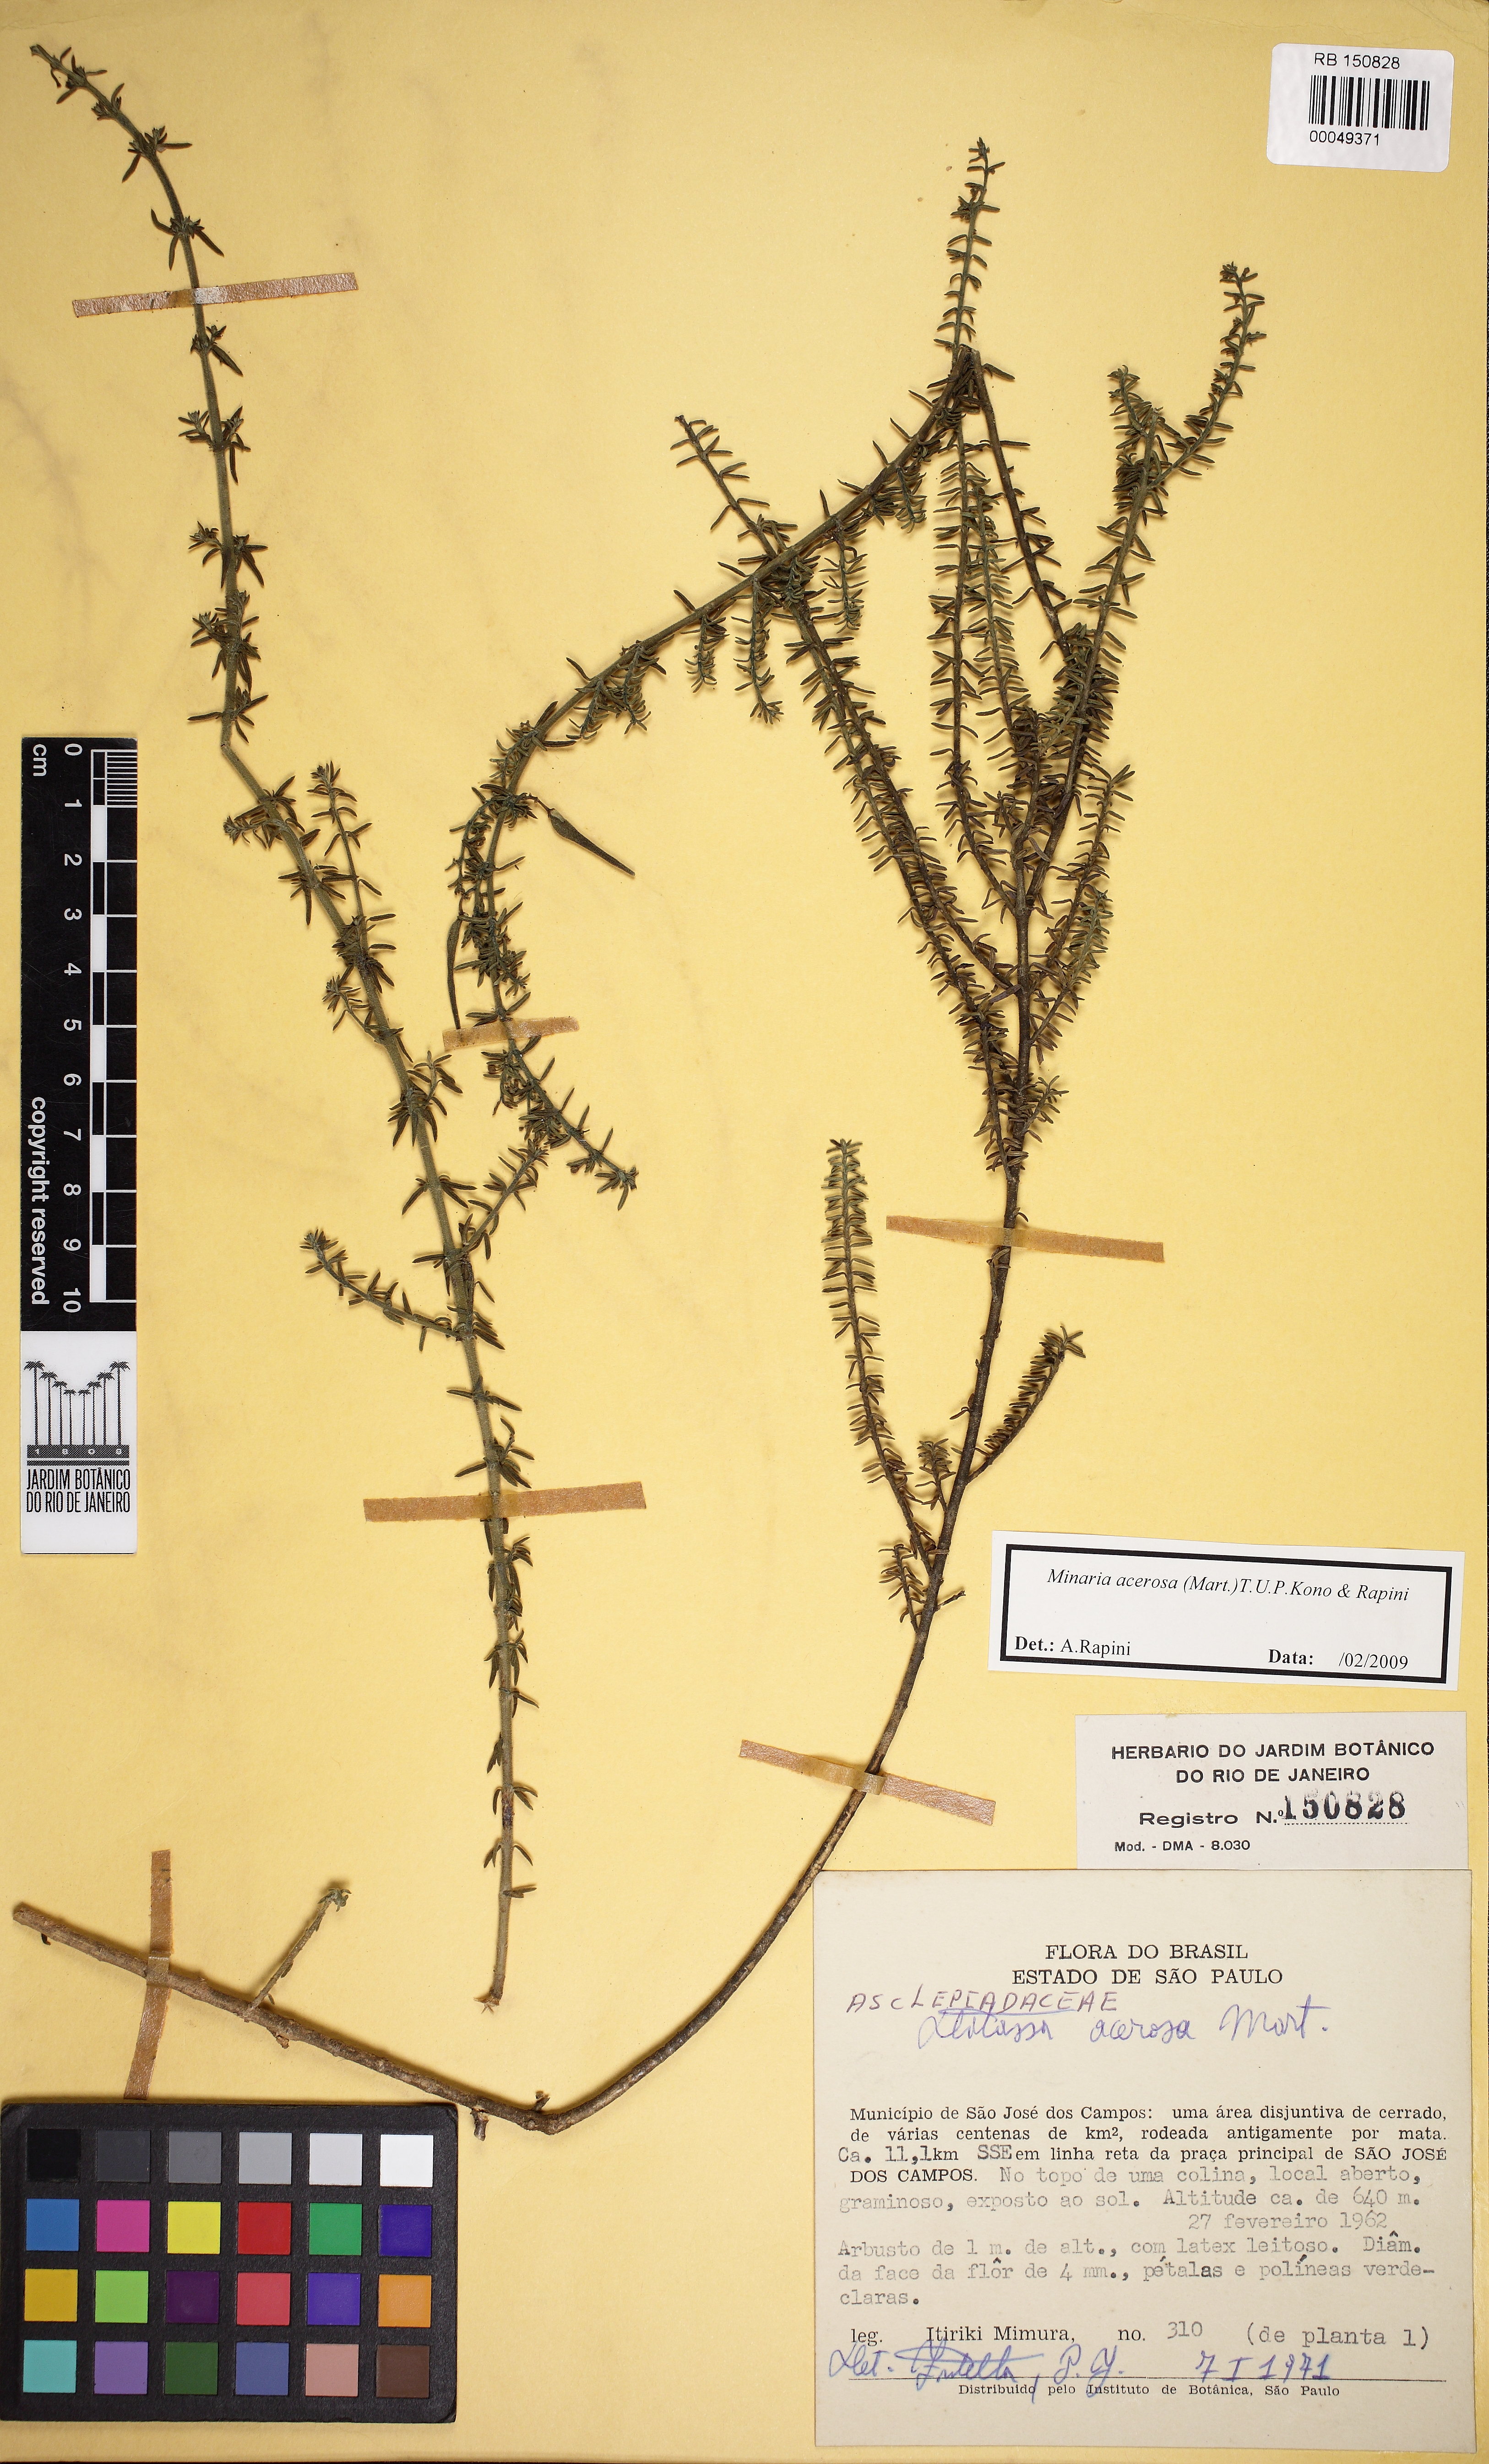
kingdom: Plantae
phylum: Tracheophyta
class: Magnoliopsida
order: Gentianales
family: Apocynaceae
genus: Minaria
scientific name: Minaria acerosa
